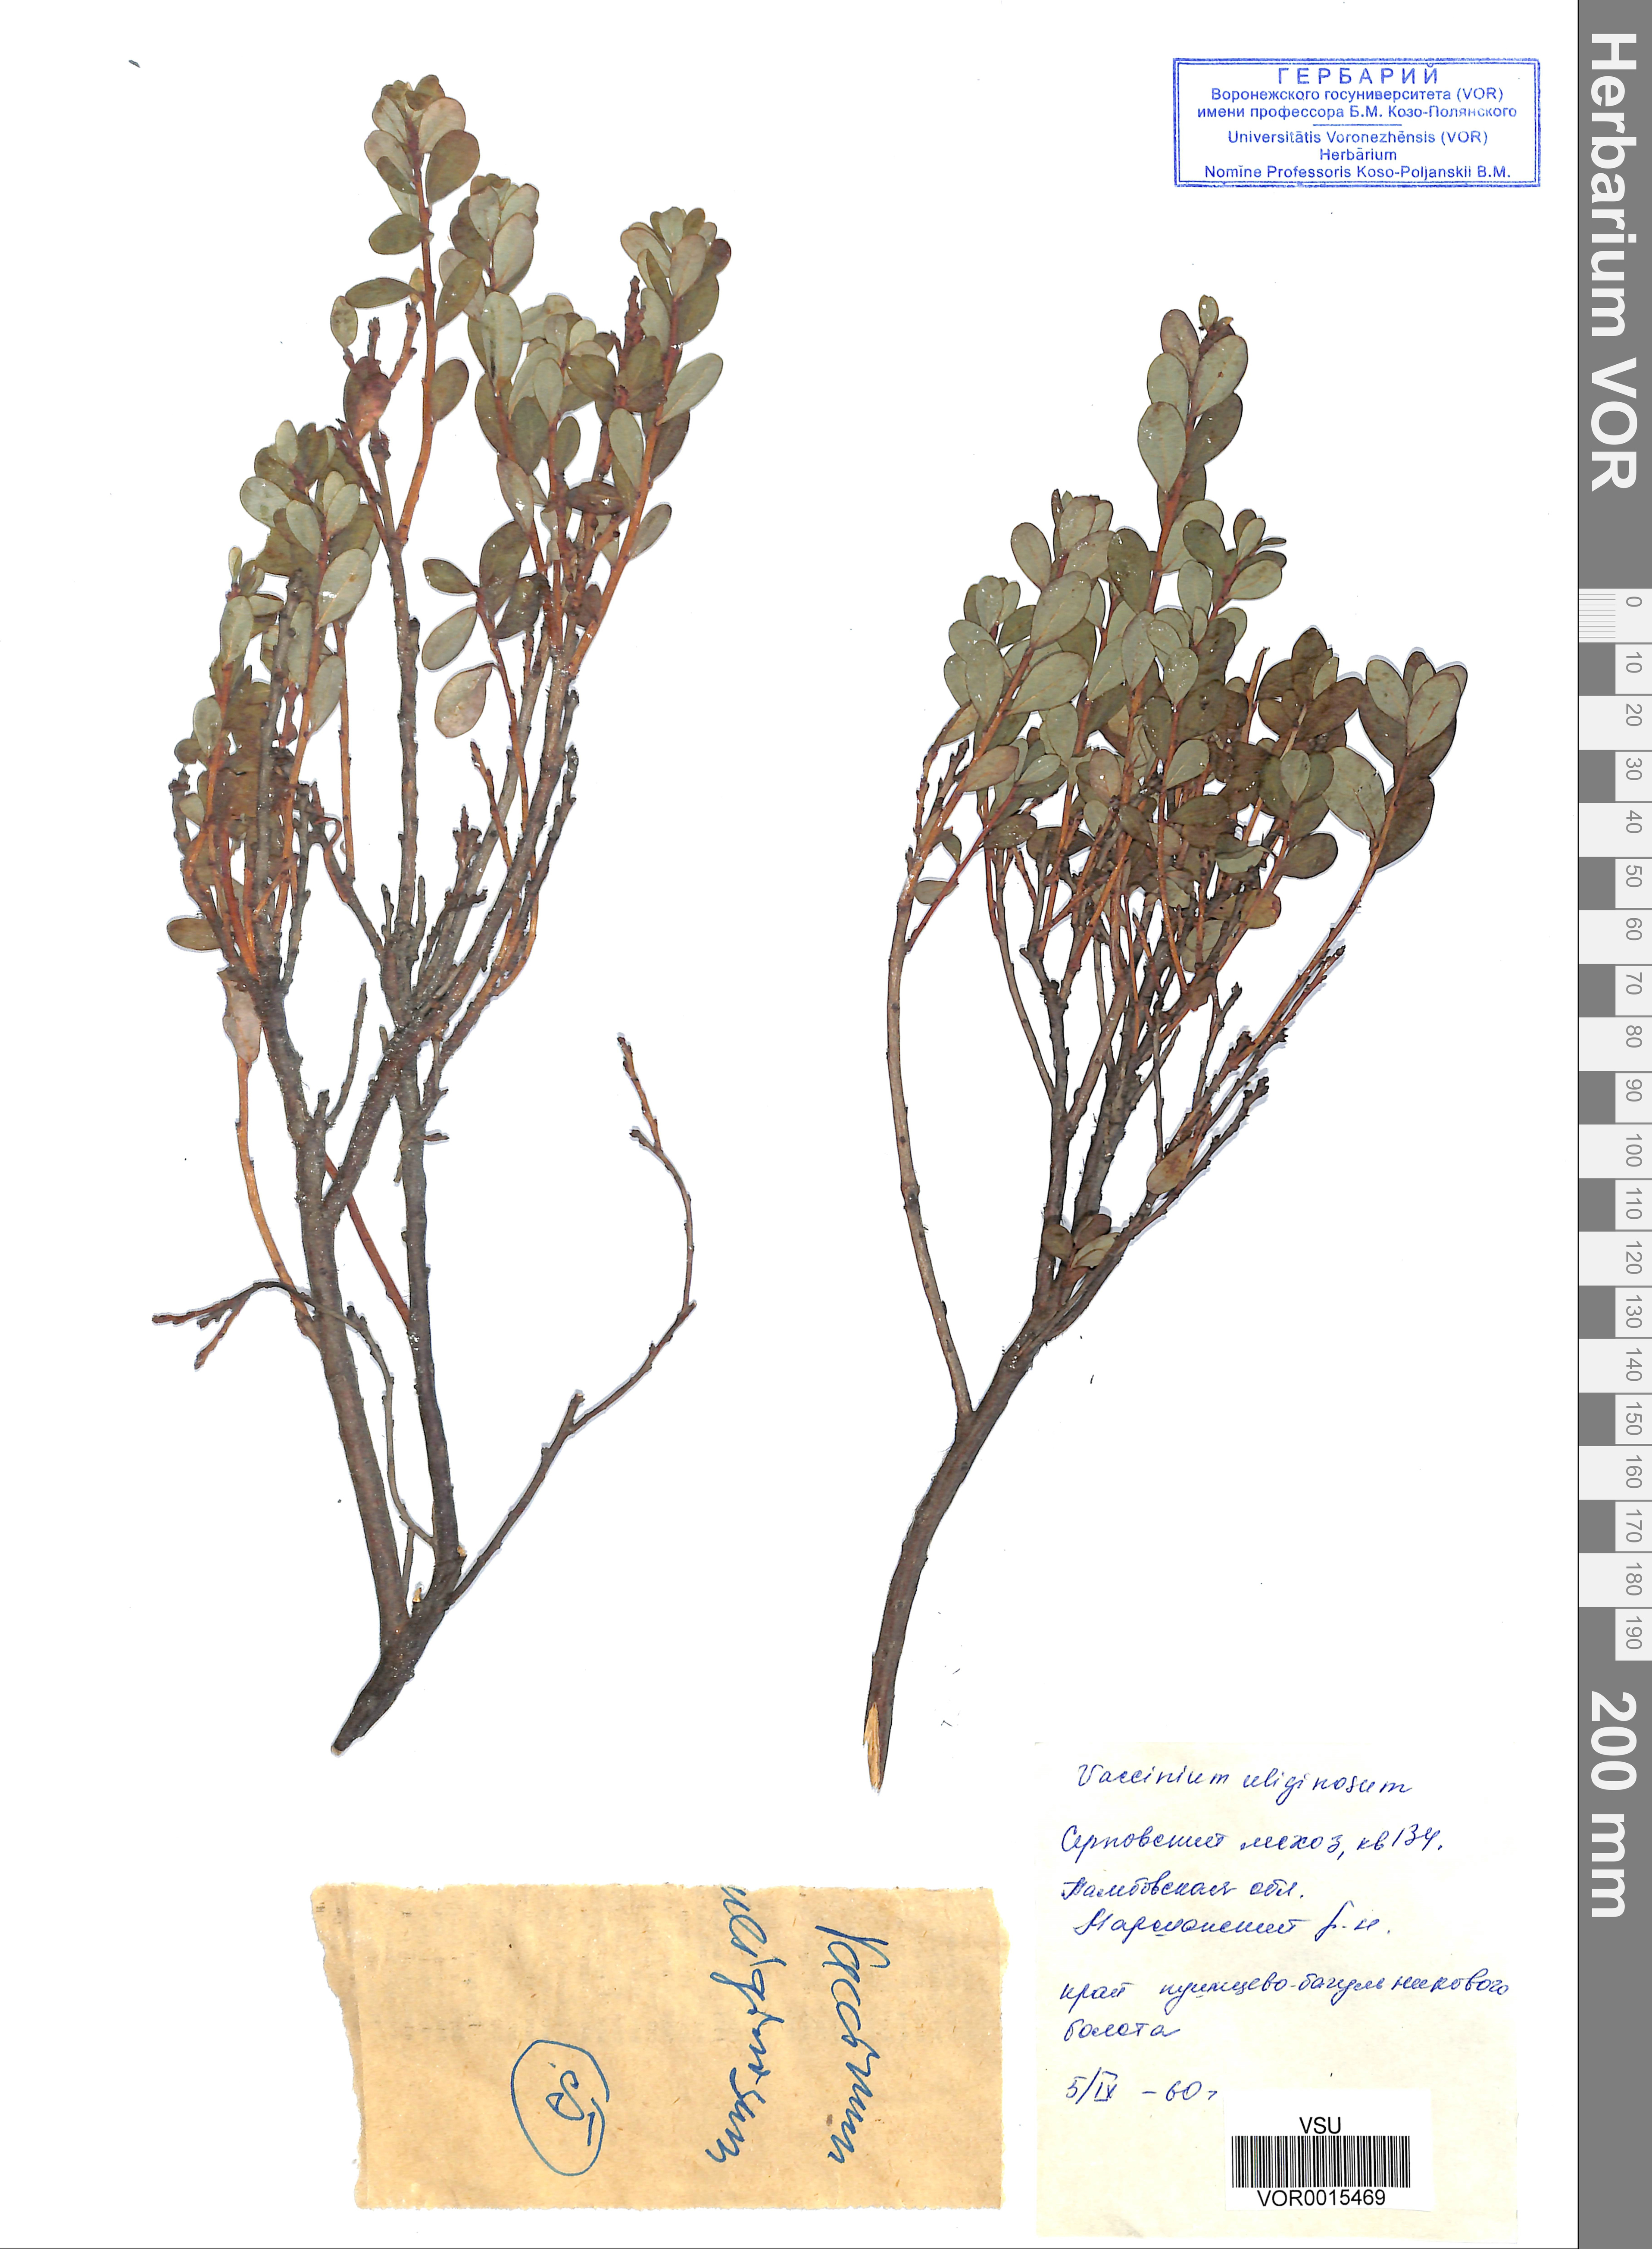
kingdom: Plantae
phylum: Tracheophyta
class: Magnoliopsida
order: Ericales
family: Ericaceae
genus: Vaccinium
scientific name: Vaccinium uliginosum
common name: Bog bilberry
